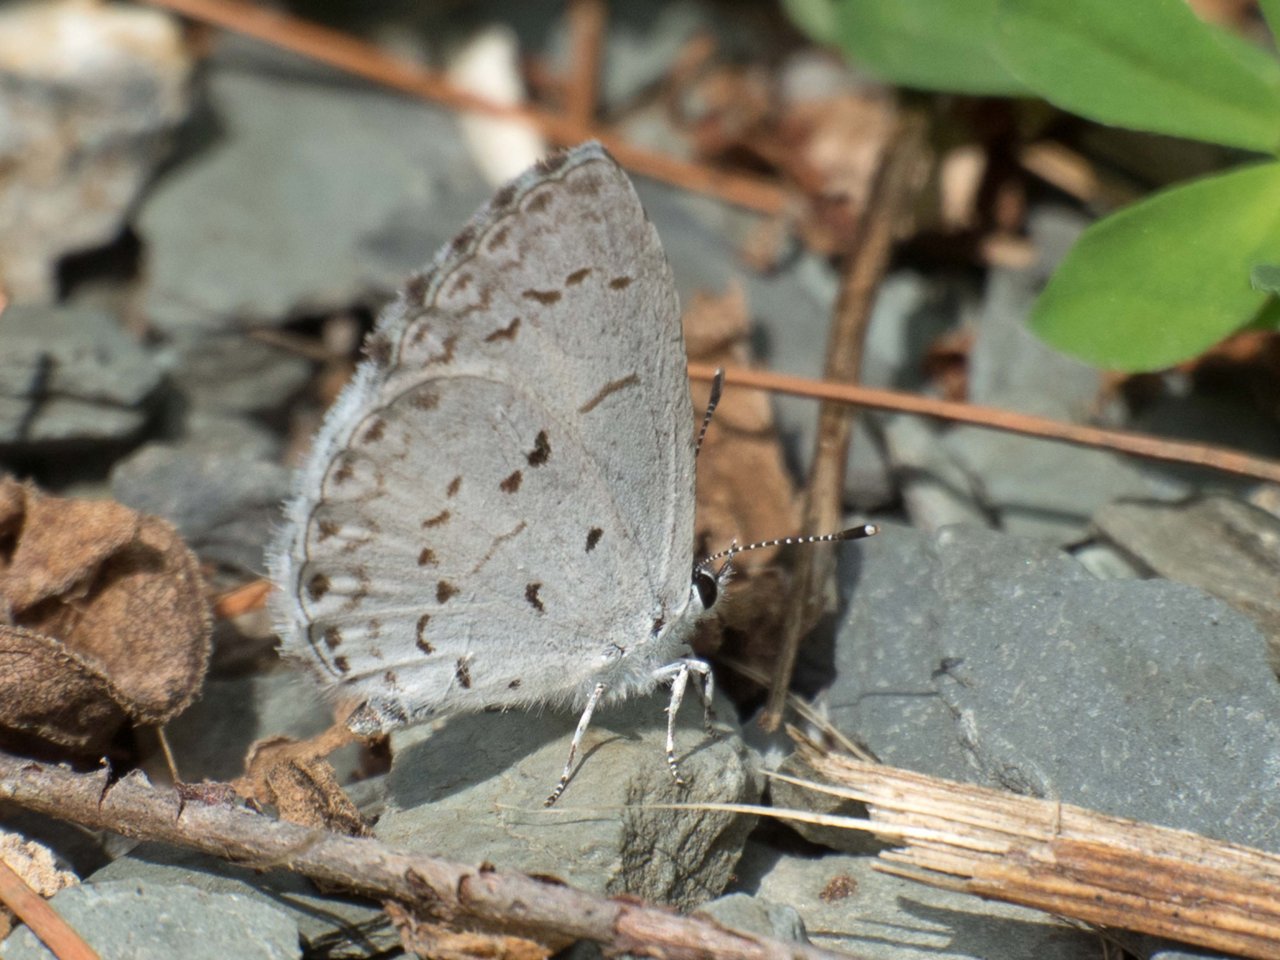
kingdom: Animalia
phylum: Arthropoda
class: Insecta
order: Lepidoptera
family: Lycaenidae
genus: Celastrina
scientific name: Celastrina
